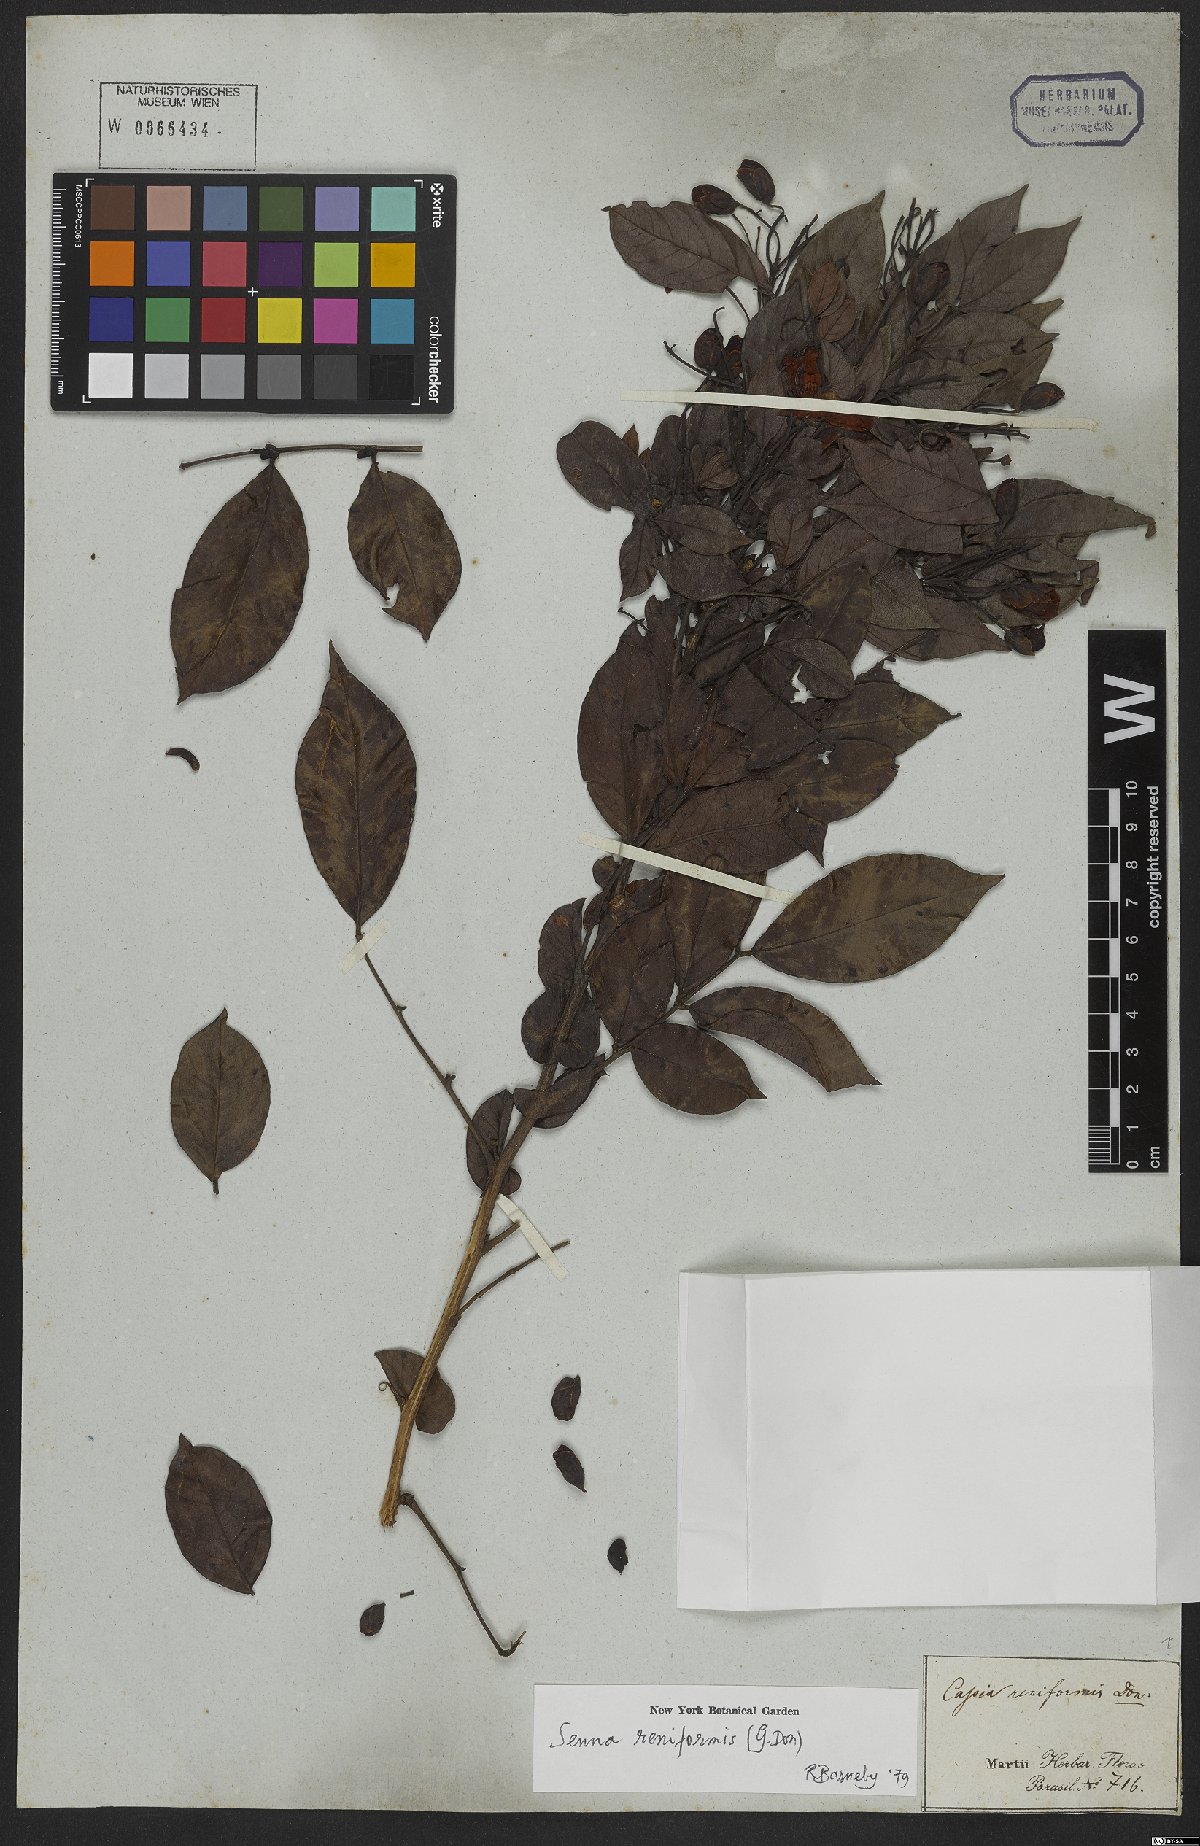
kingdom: Plantae
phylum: Tracheophyta
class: Magnoliopsida
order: Fabales
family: Fabaceae
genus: Senna
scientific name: Senna reniformis
